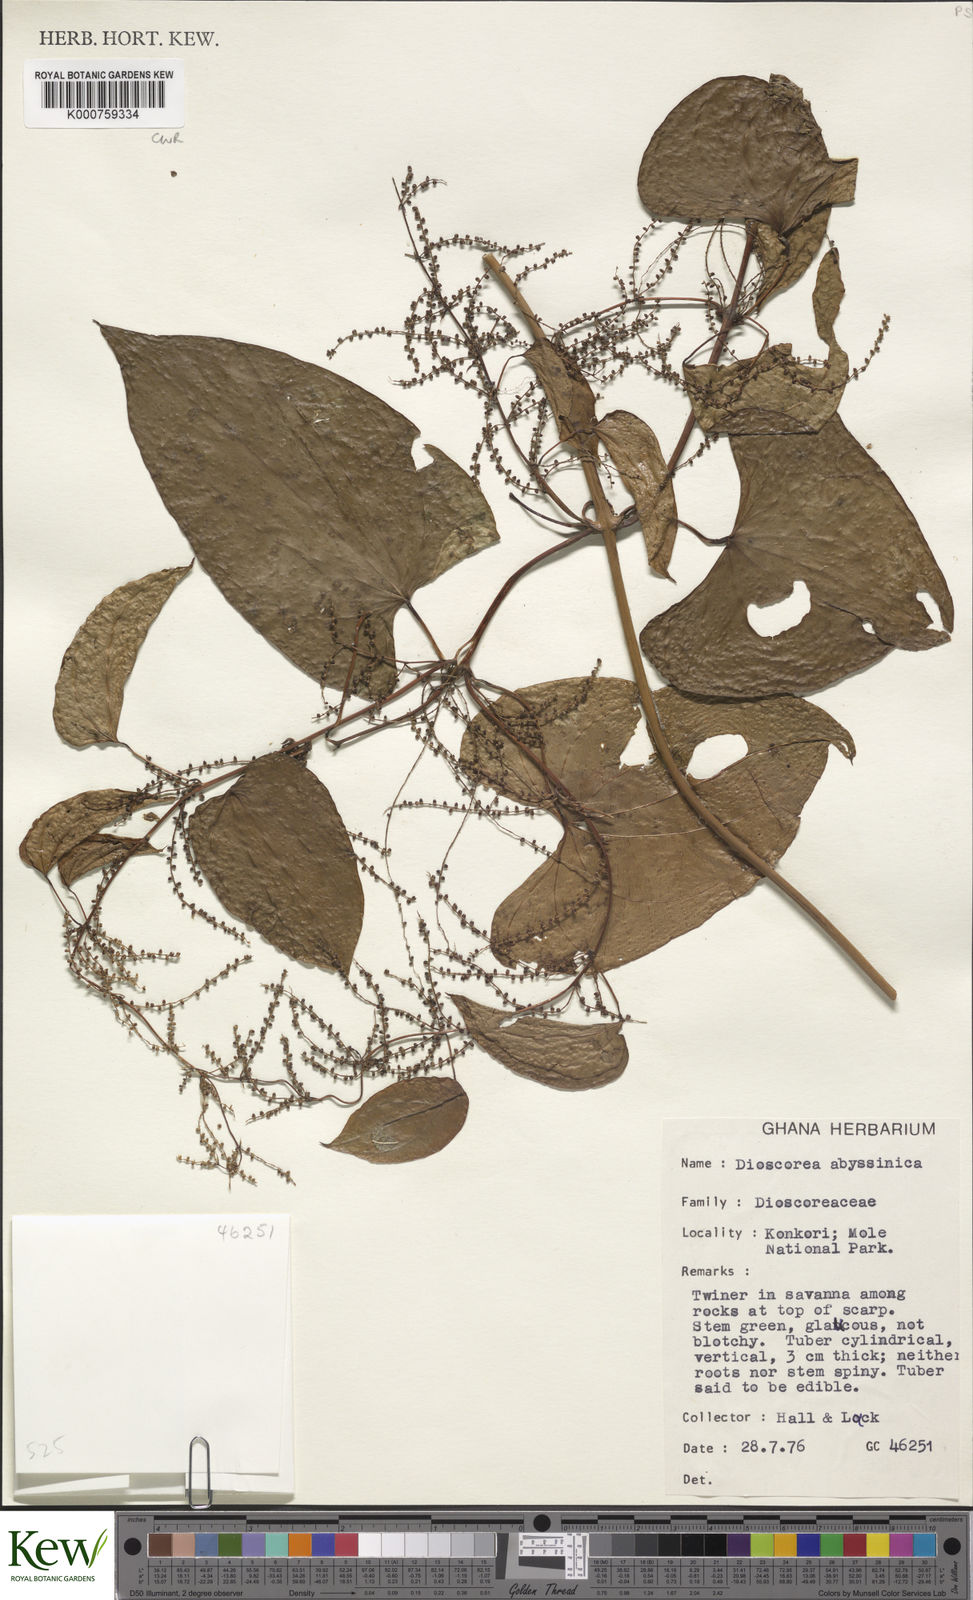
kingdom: Plantae
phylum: Tracheophyta
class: Liliopsida
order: Dioscoreales
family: Dioscoreaceae
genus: Dioscorea
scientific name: Dioscorea abyssinica
